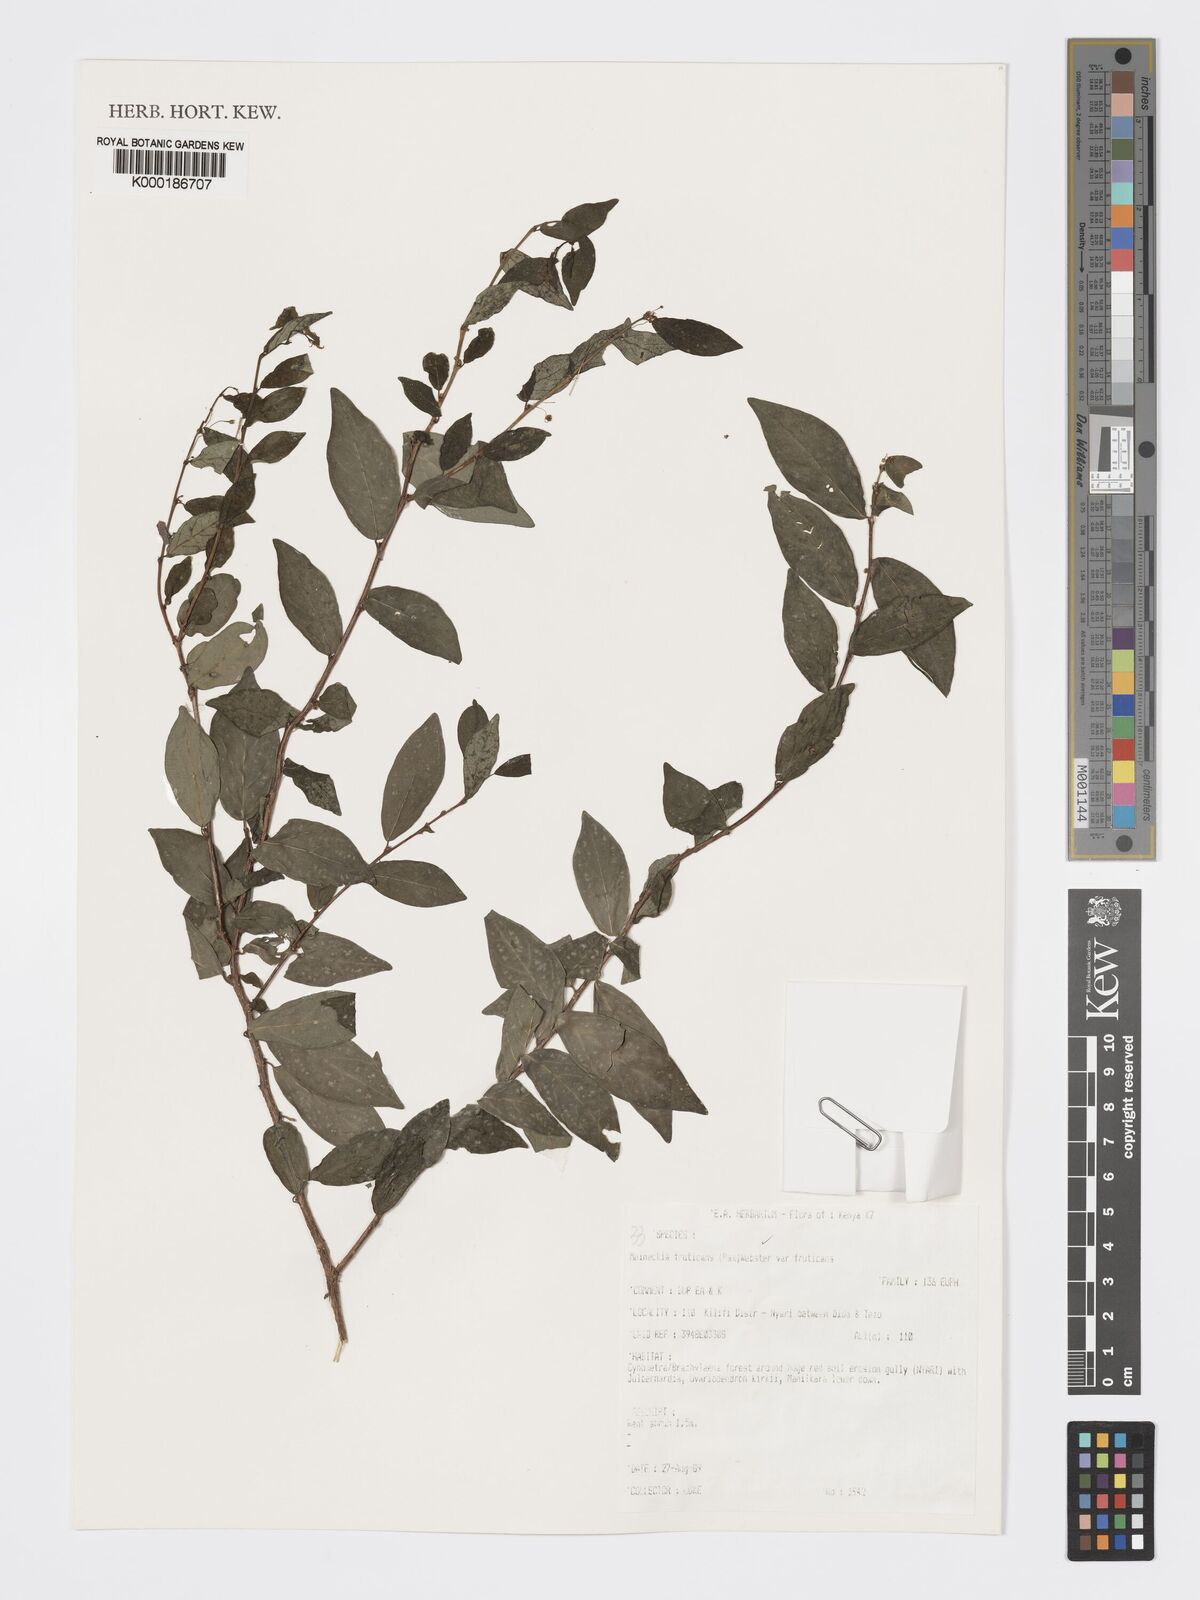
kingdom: Plantae
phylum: Tracheophyta
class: Magnoliopsida
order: Malpighiales
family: Phyllanthaceae
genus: Meineckia
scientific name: Meineckia fruticans
